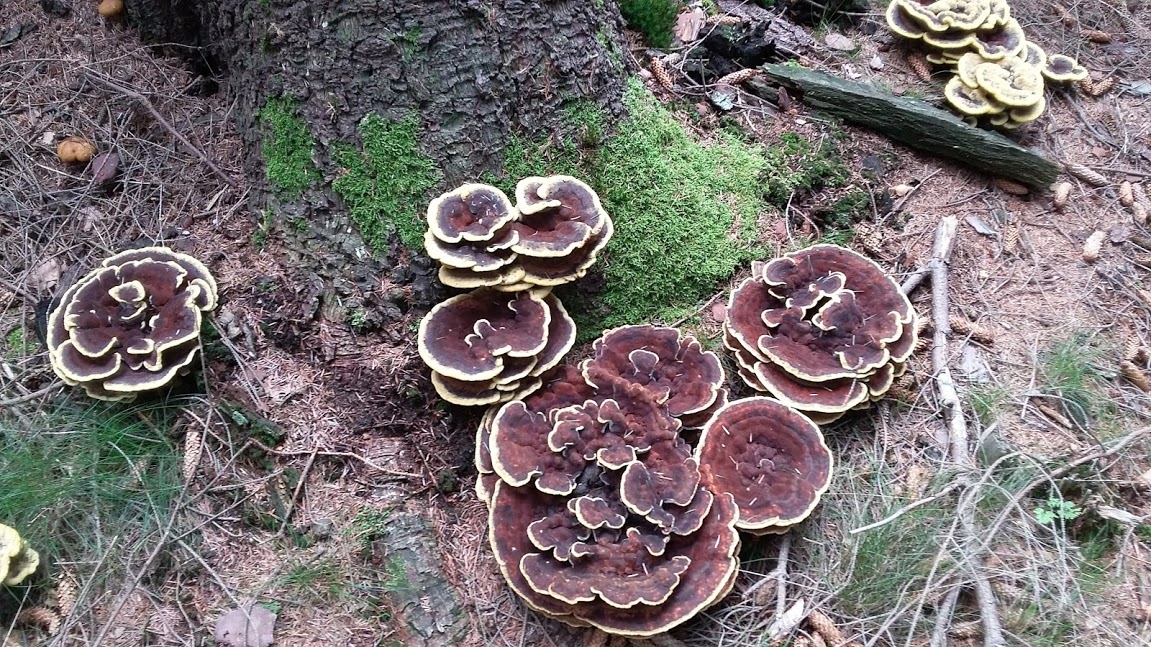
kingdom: Fungi
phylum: Basidiomycota
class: Agaricomycetes
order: Polyporales
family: Laetiporaceae
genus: Phaeolus
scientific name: Phaeolus schweinitzii
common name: brunporesvamp
